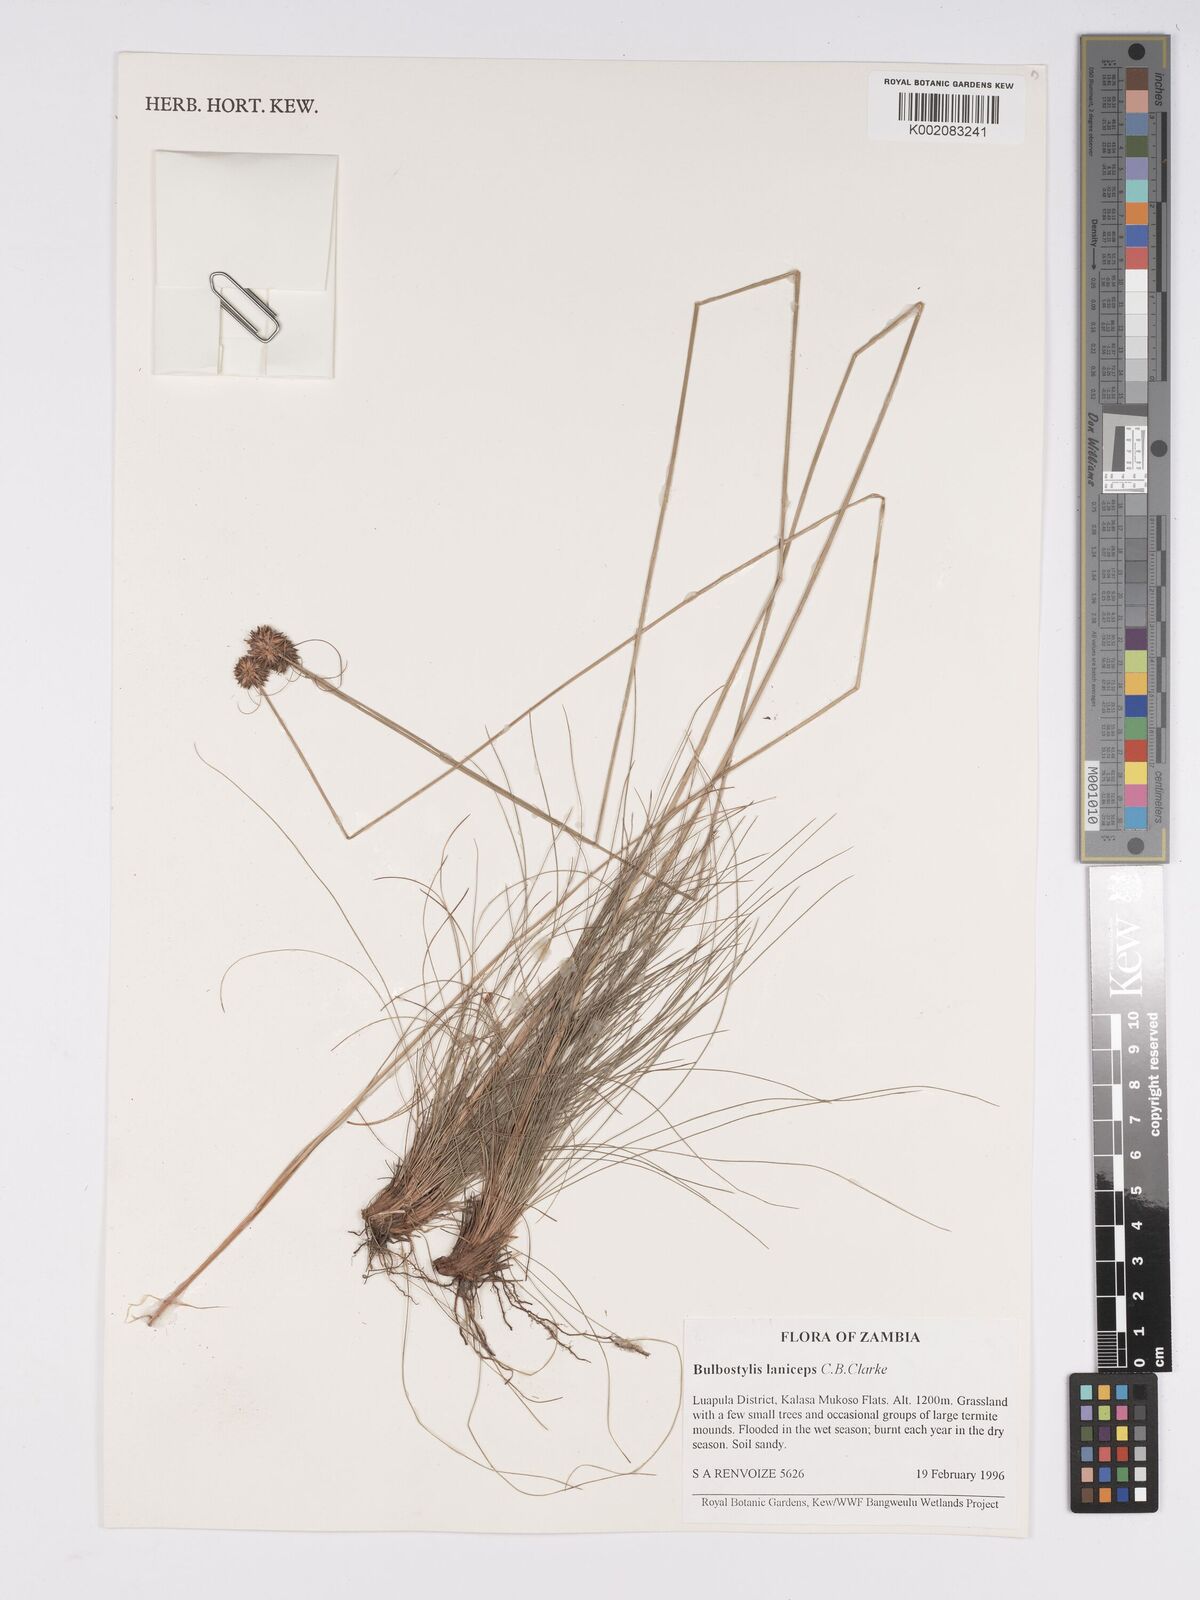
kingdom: Plantae
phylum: Tracheophyta
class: Liliopsida
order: Poales
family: Cyperaceae
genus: Bulbostylis
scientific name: Bulbostylis laniceps
